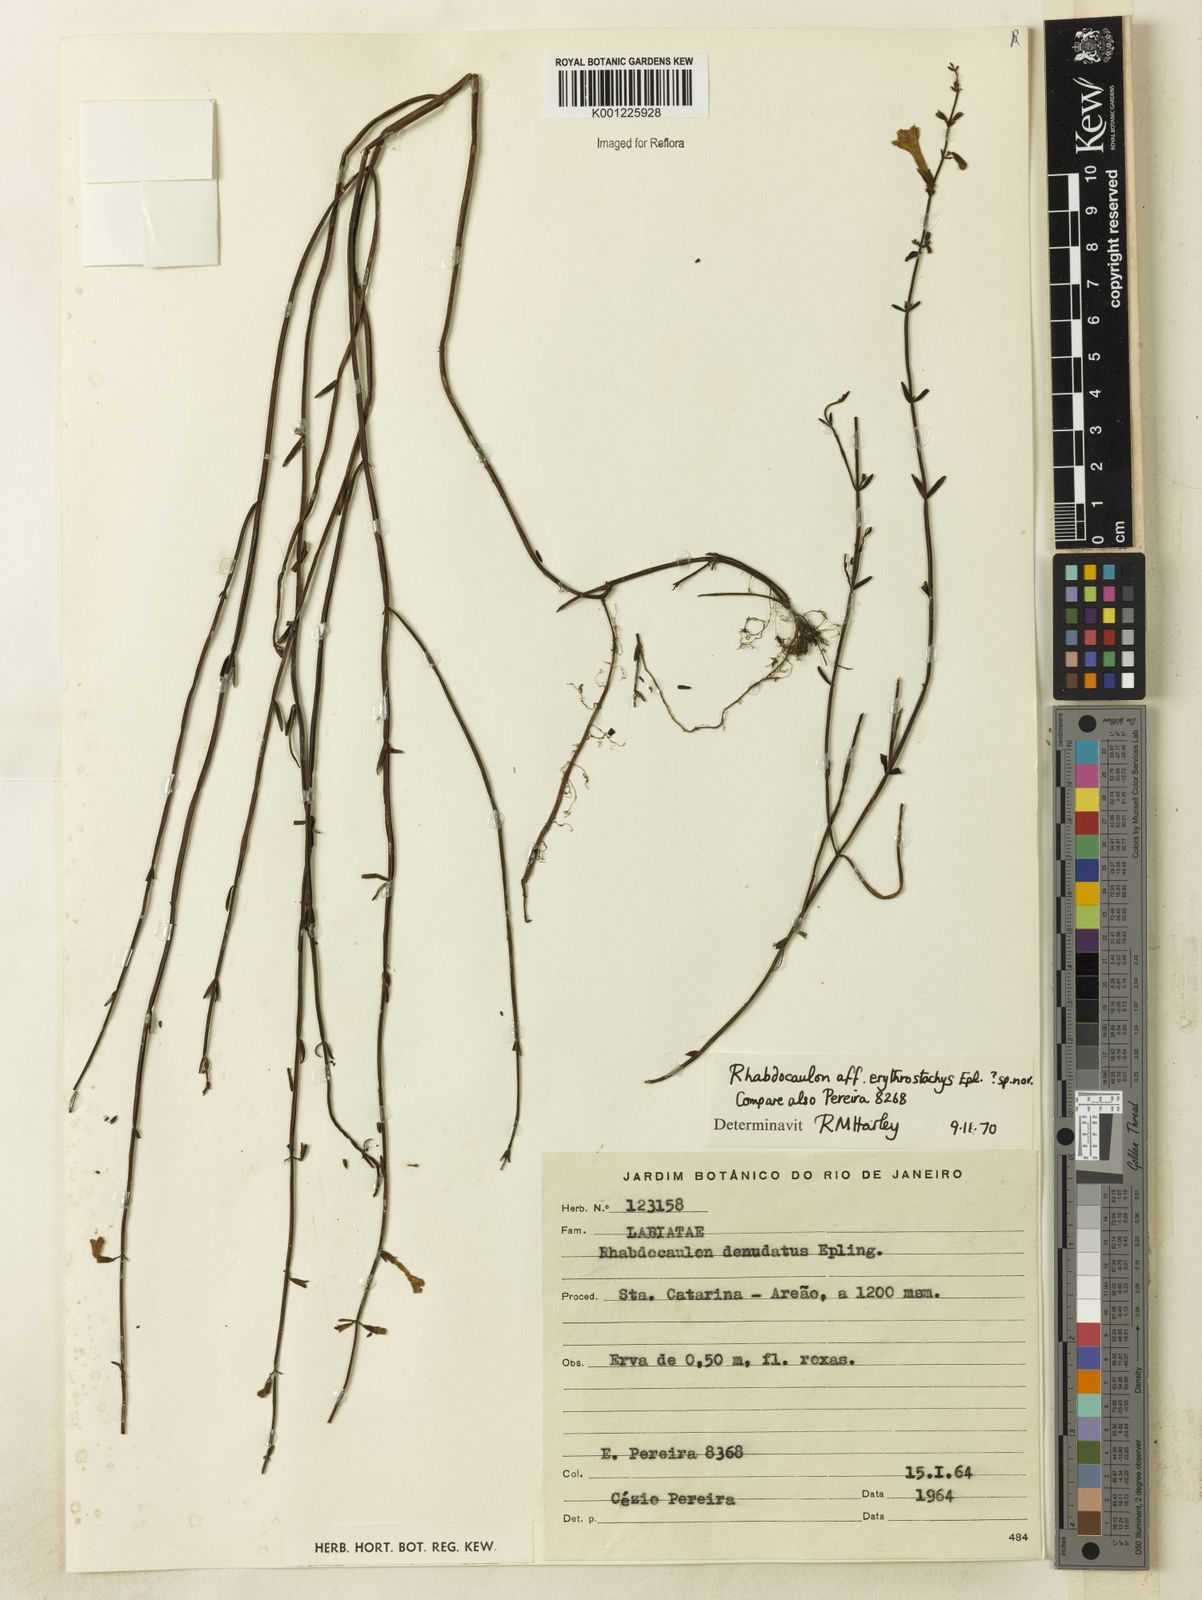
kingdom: Plantae
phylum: Tracheophyta
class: Magnoliopsida
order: Lamiales
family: Lamiaceae
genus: Rhabdocaulon
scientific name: Rhabdocaulon erythrostachys
